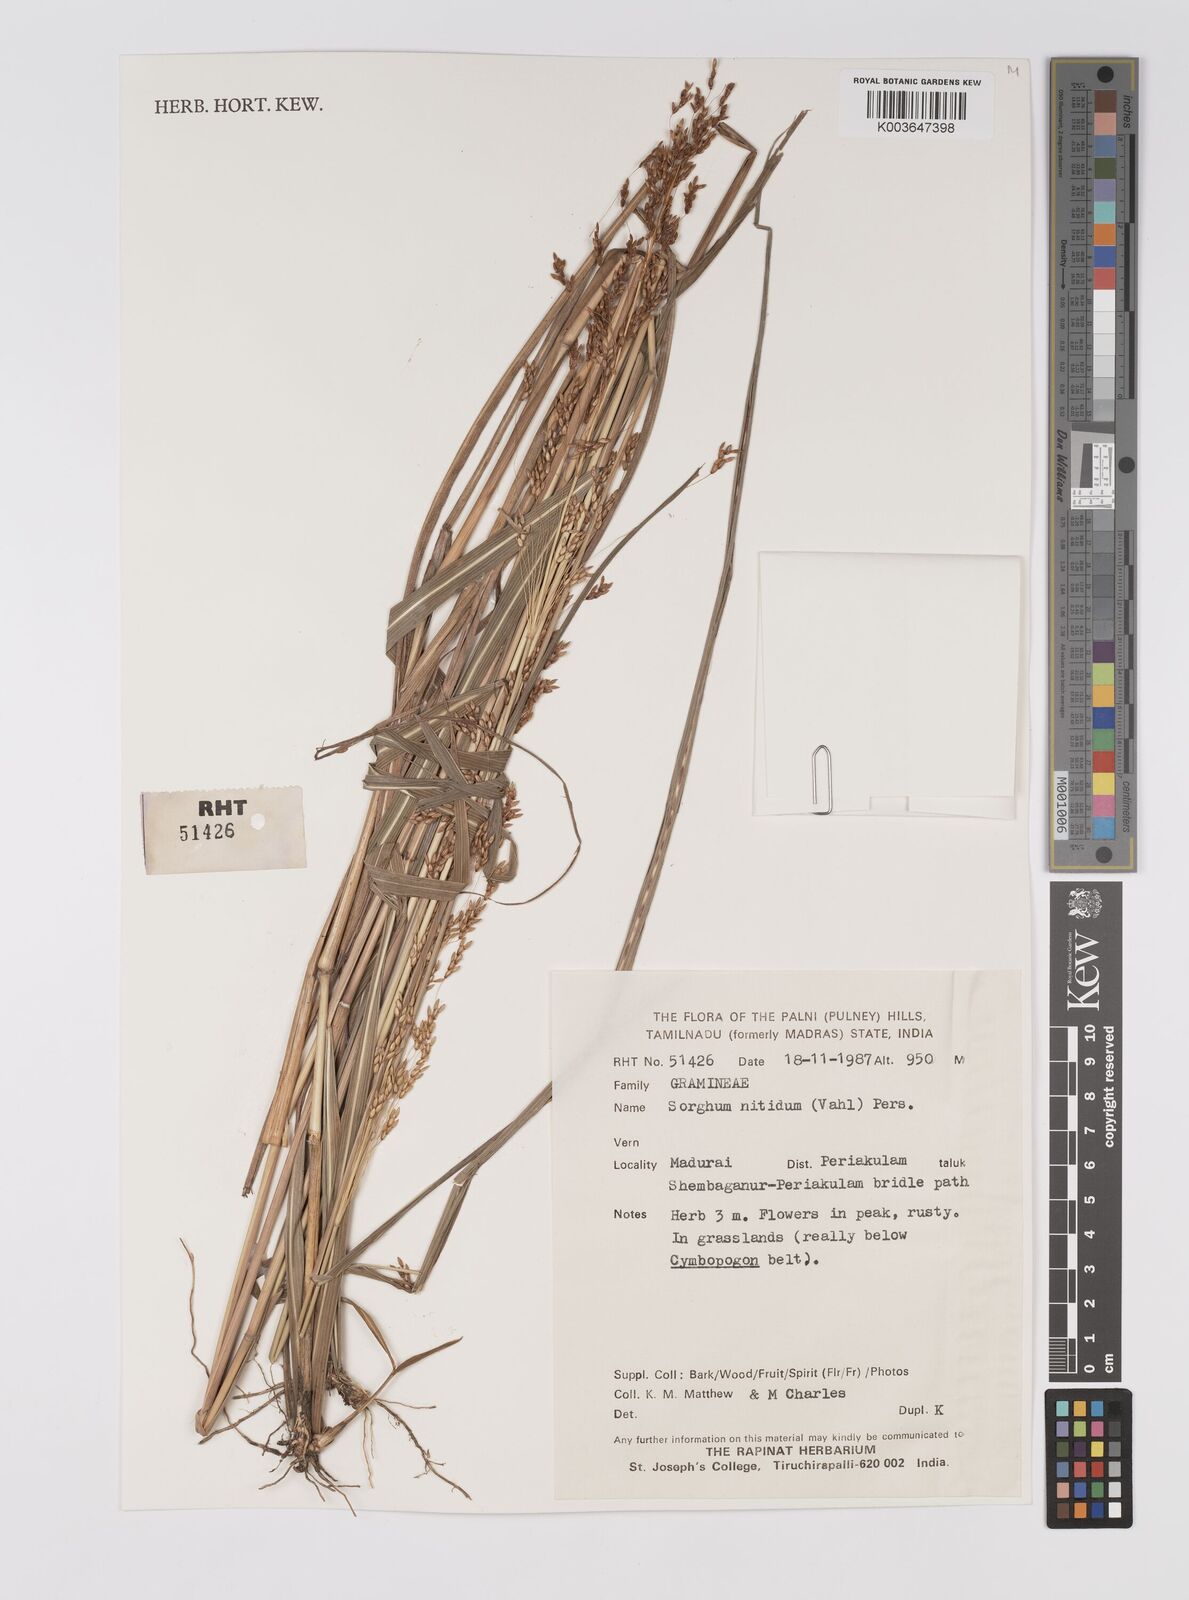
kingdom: Plantae
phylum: Tracheophyta
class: Liliopsida
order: Poales
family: Poaceae
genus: Sorghum
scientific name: Sorghum nitidum
